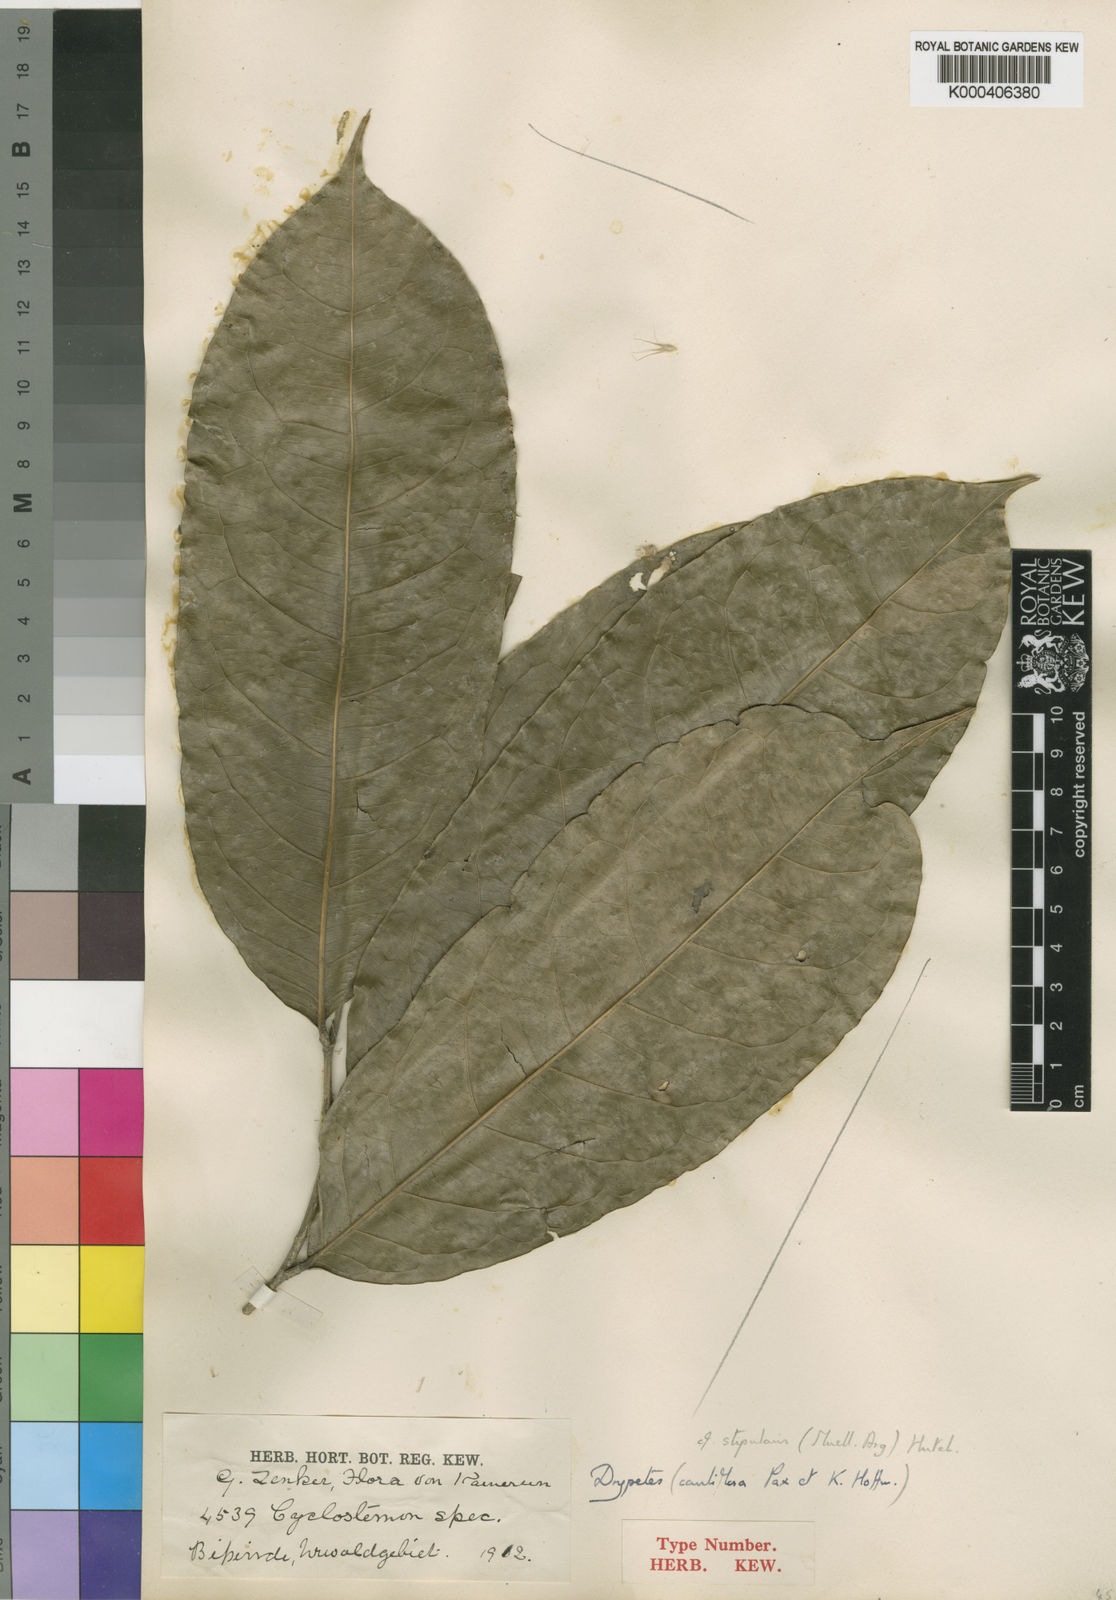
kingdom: Plantae
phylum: Tracheophyta
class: Magnoliopsida
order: Malpighiales
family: Putranjivaceae
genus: Drypetes
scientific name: Drypetes
